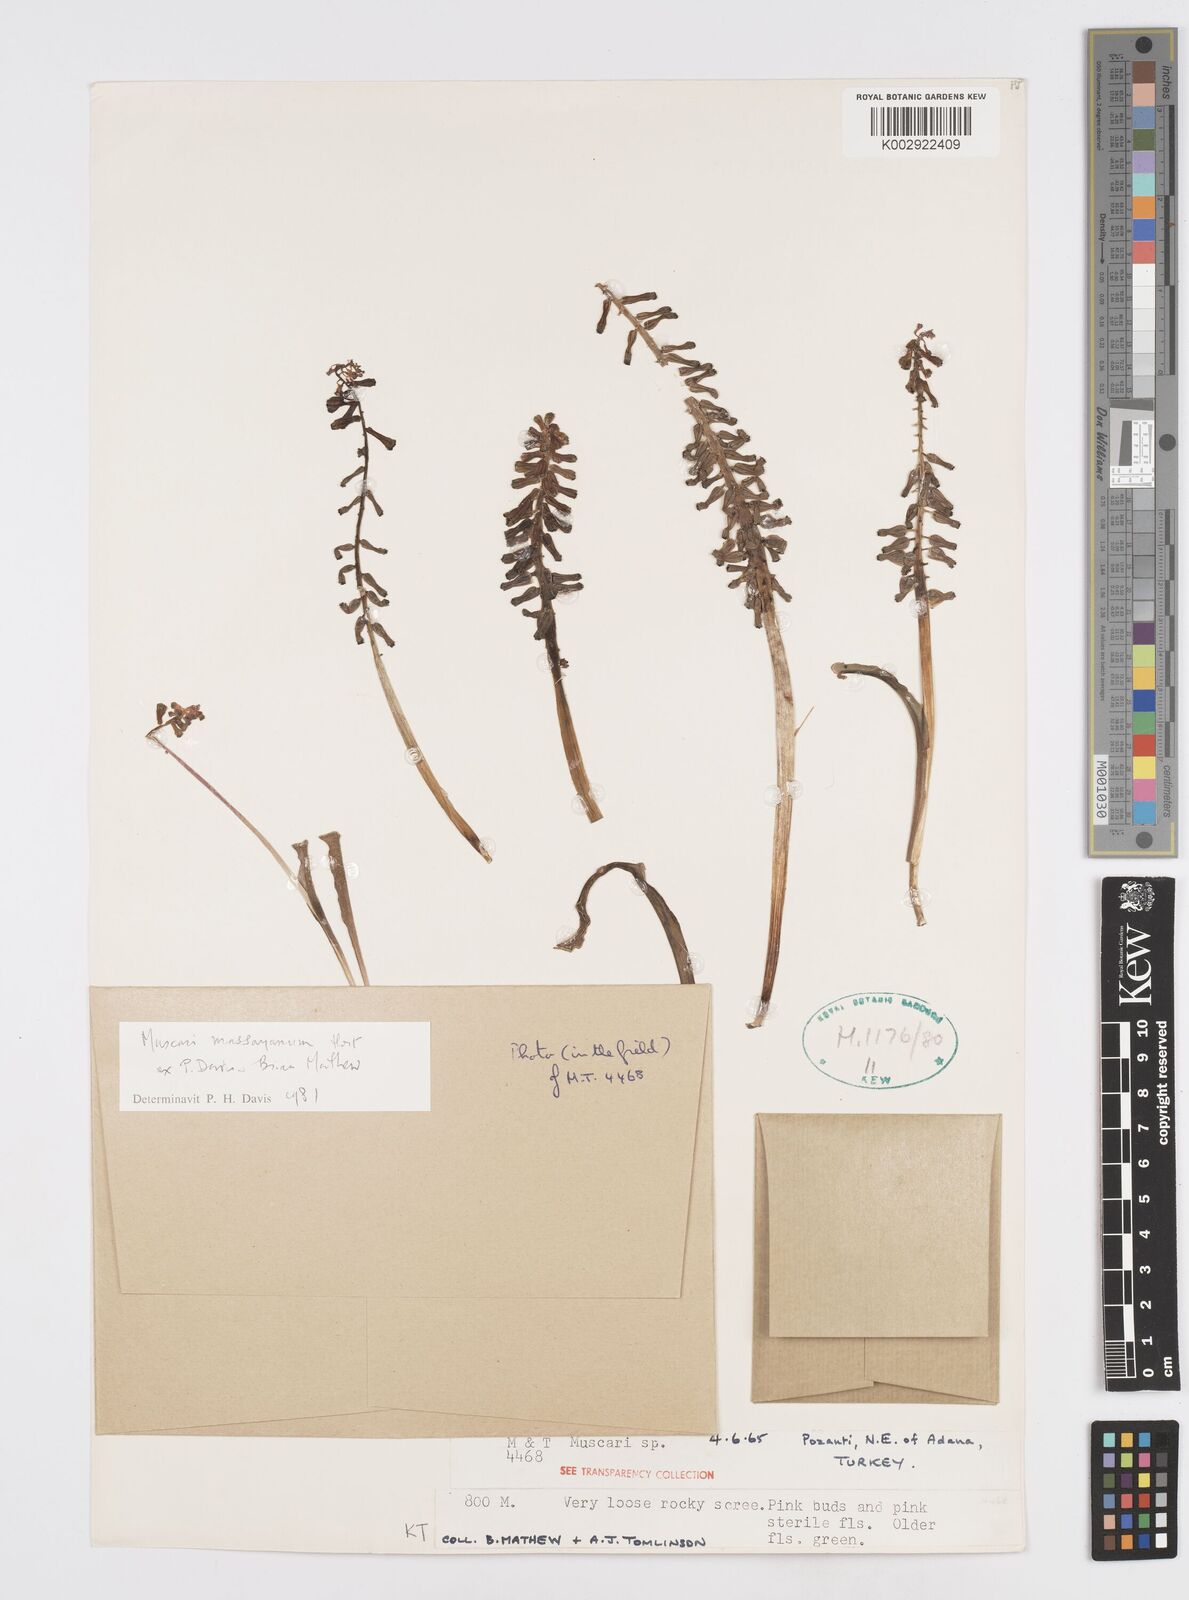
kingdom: Animalia
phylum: Mollusca
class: Cephalopoda
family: Neocomitidae
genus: Leopoldia
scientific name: Leopoldia
